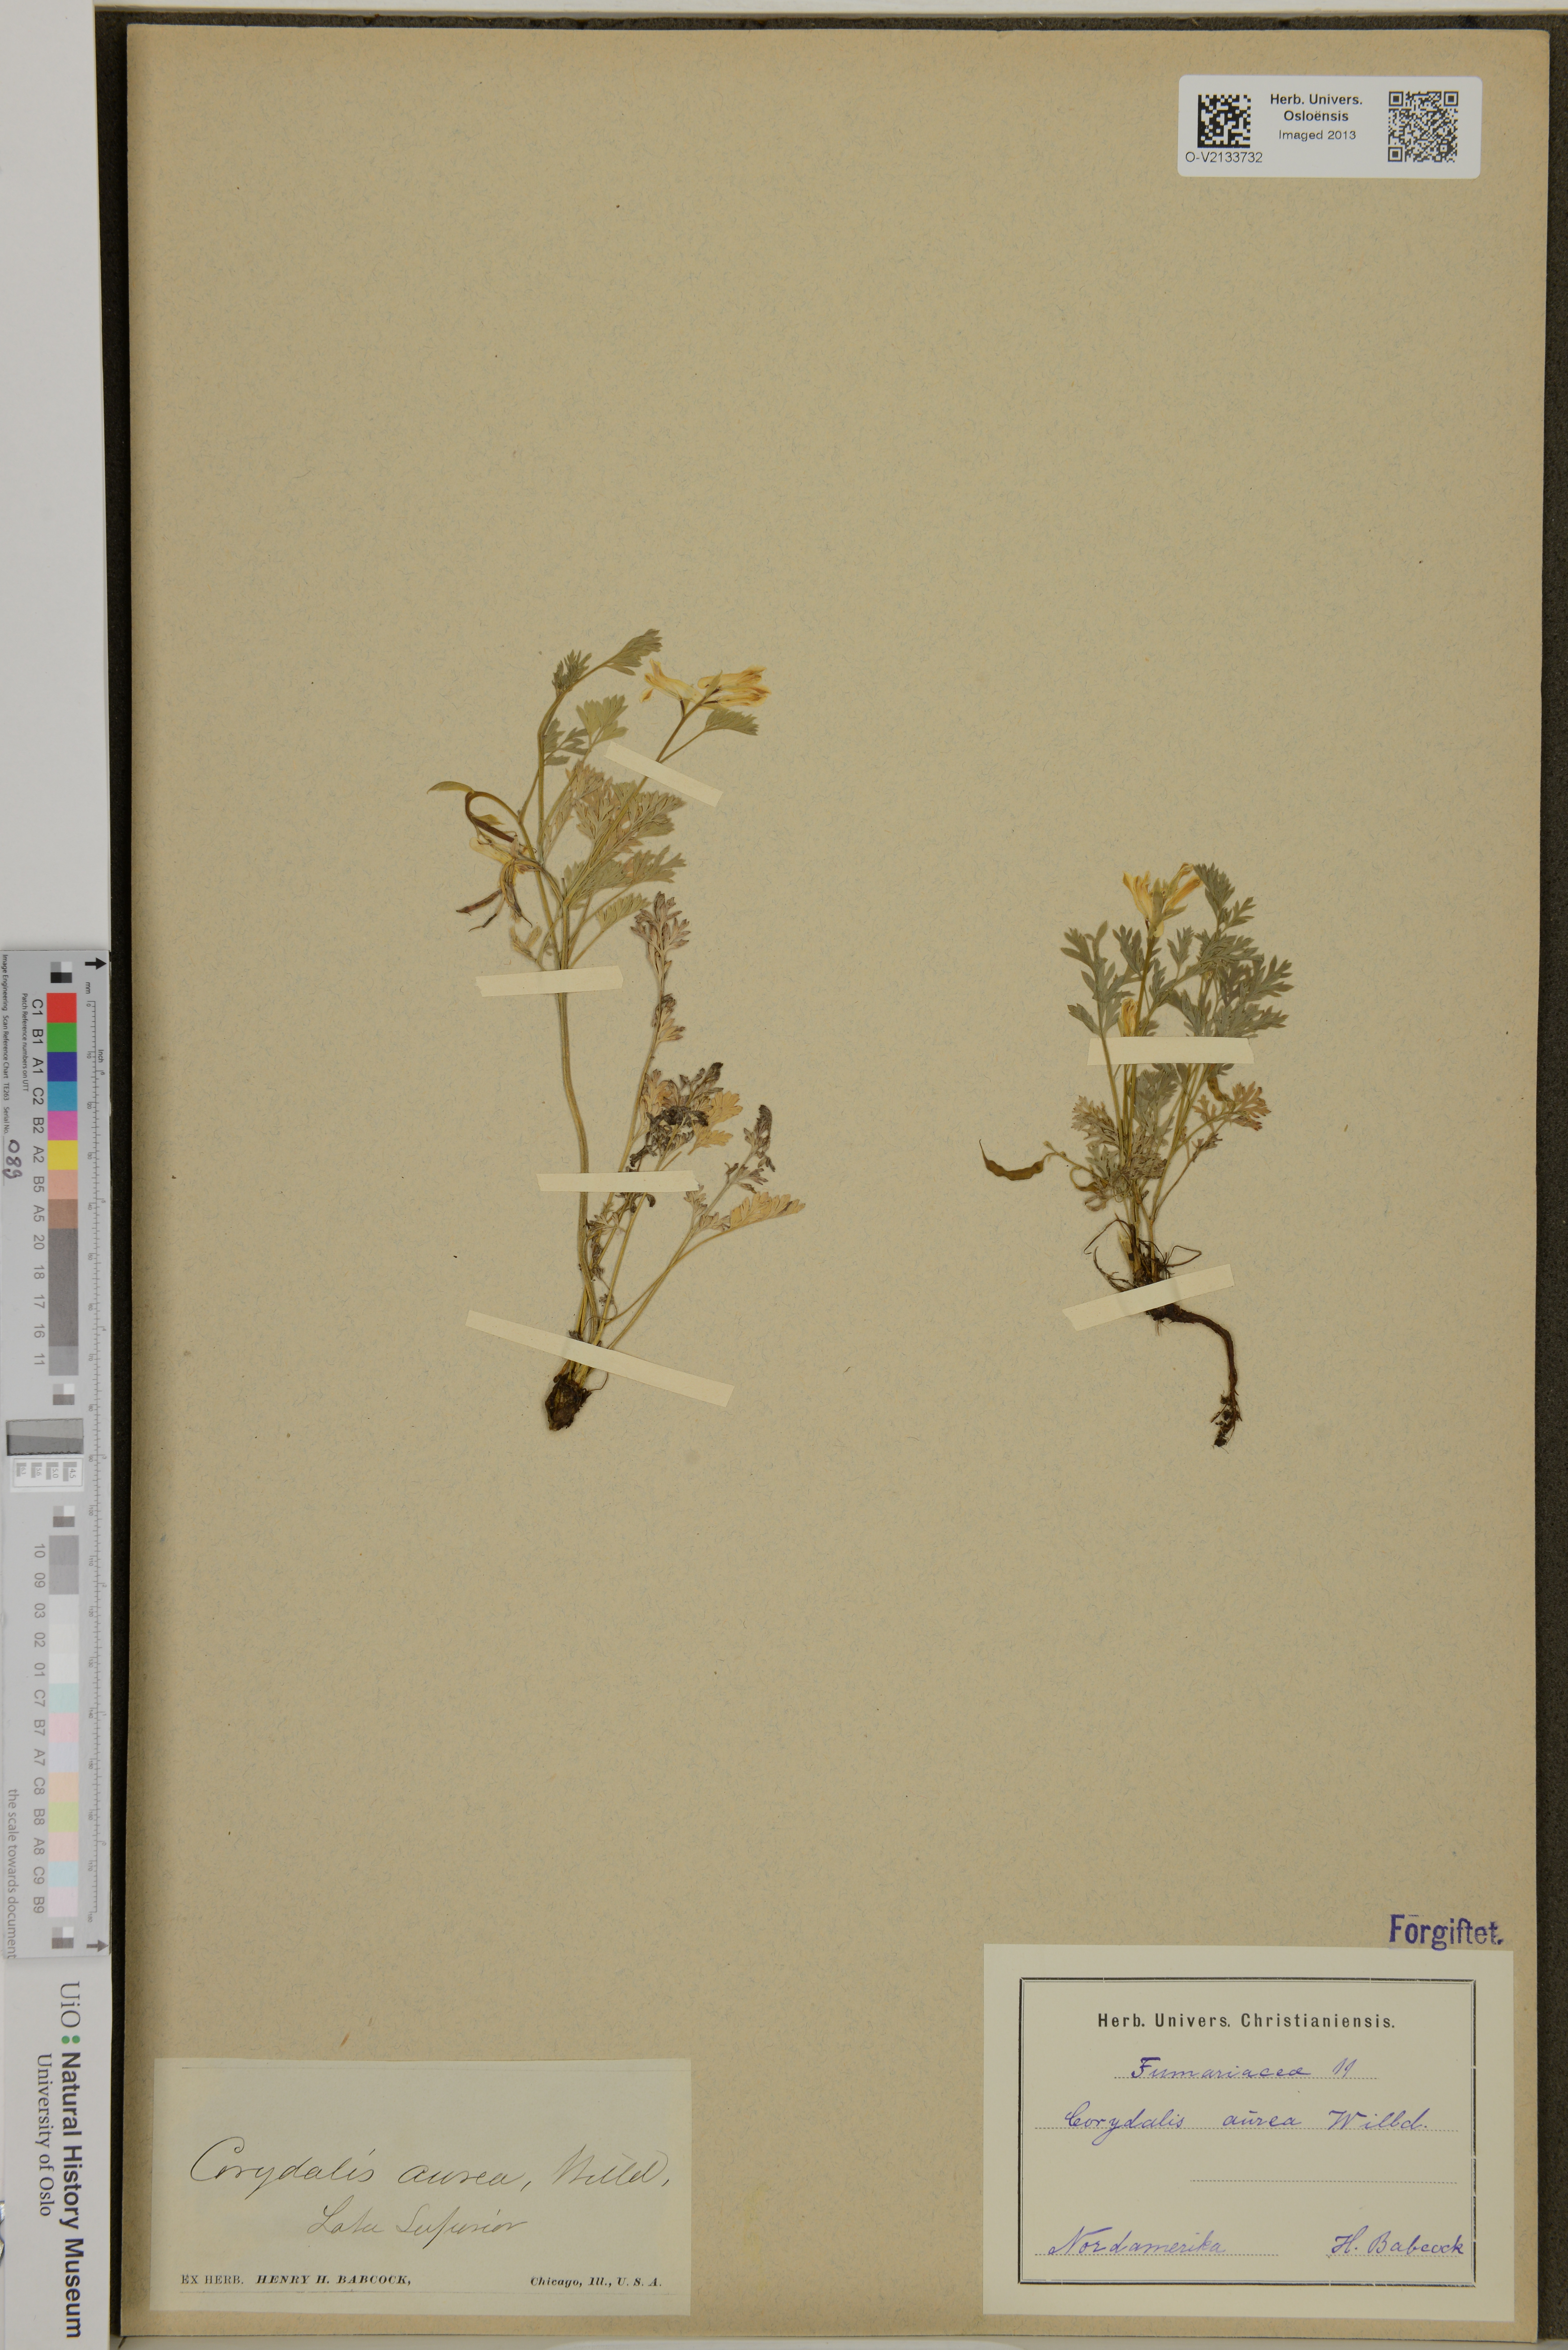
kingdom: Plantae
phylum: Tracheophyta
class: Magnoliopsida
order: Ranunculales
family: Papaveraceae
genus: Corydalis
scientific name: Corydalis aurea
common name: Golden corydalis
